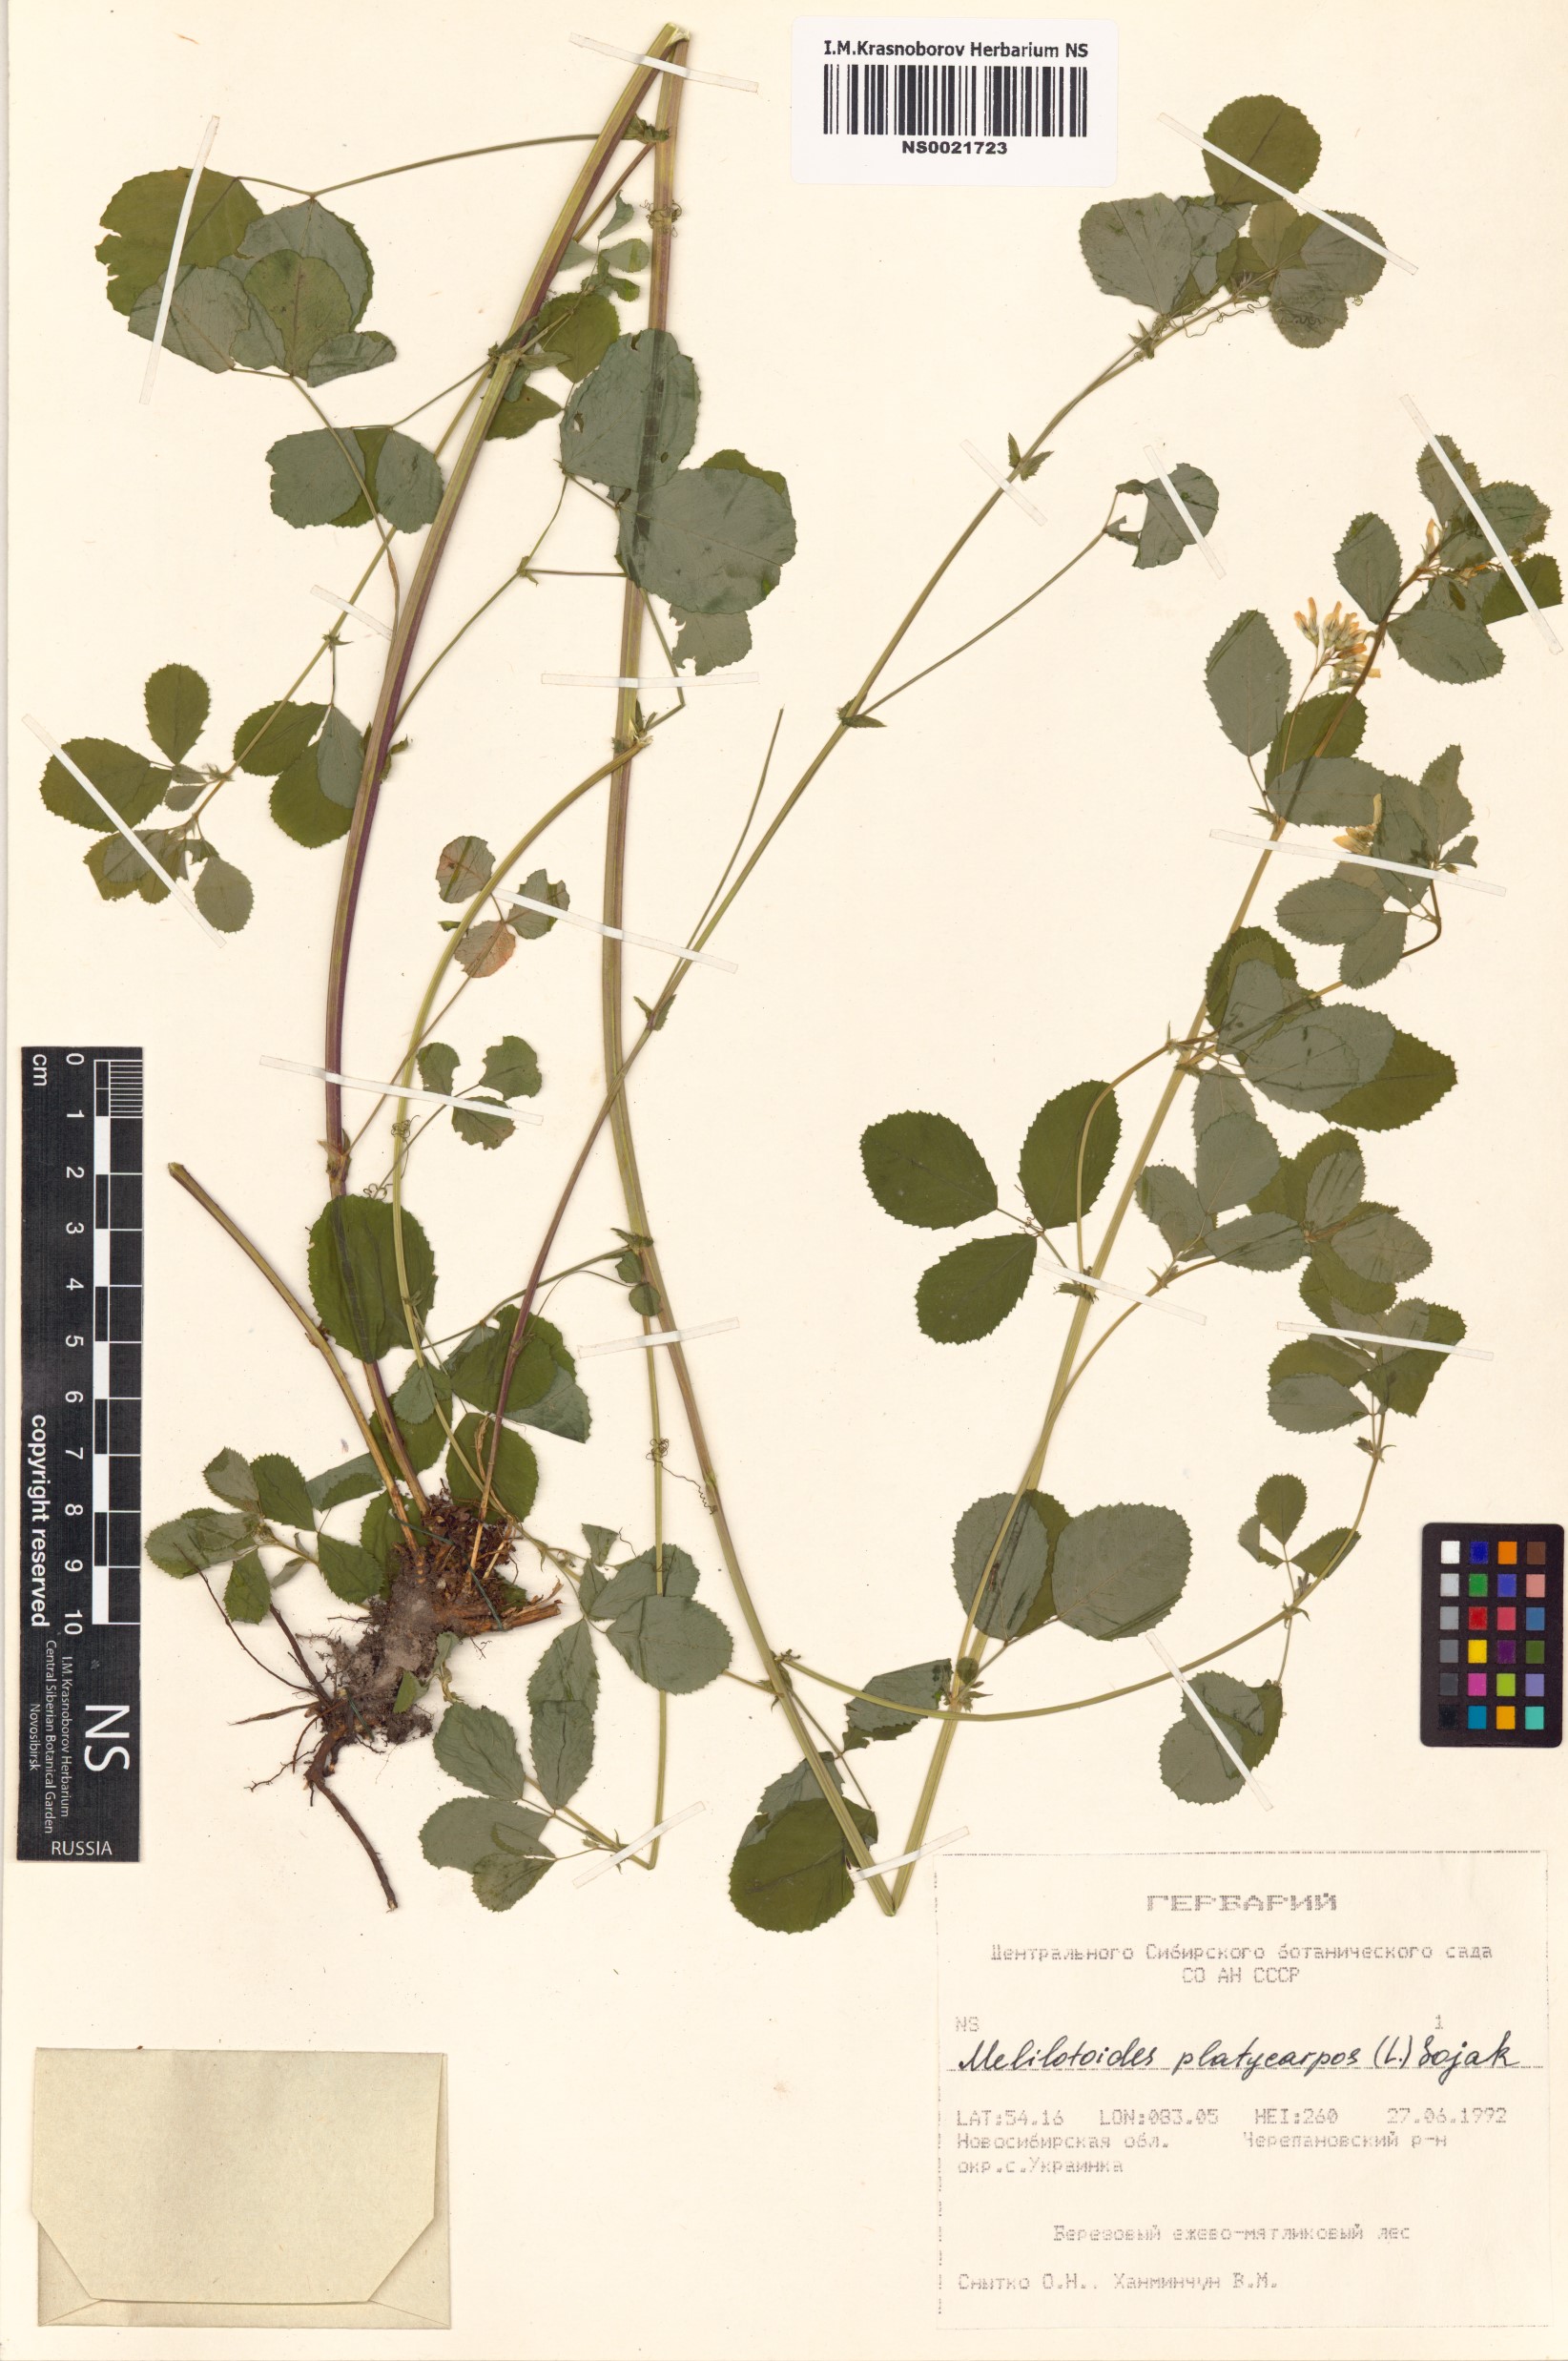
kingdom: Plantae
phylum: Tracheophyta
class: Magnoliopsida
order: Fabales
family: Fabaceae
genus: Medicago
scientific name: Medicago platycarpos
